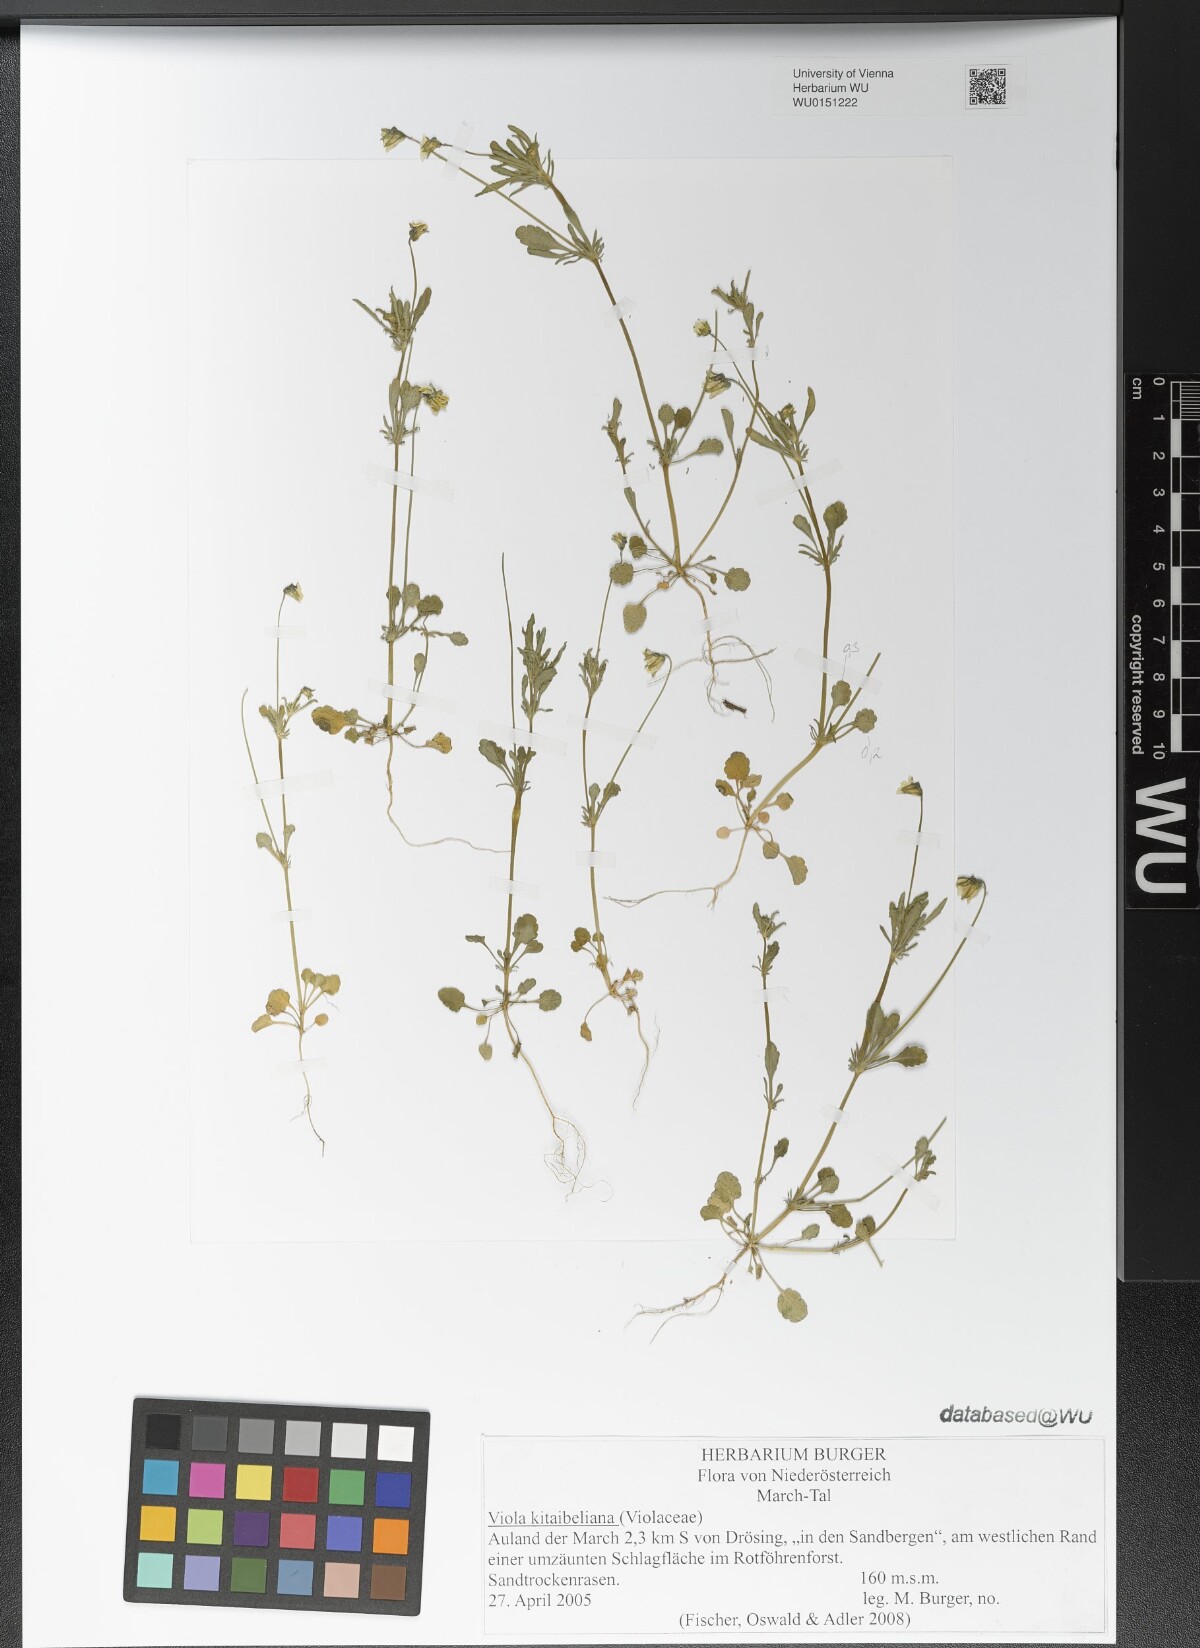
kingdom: Plantae
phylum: Tracheophyta
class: Magnoliopsida
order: Malpighiales
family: Violaceae
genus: Viola
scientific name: Viola kitaibeliana
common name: Dwarf pansy
